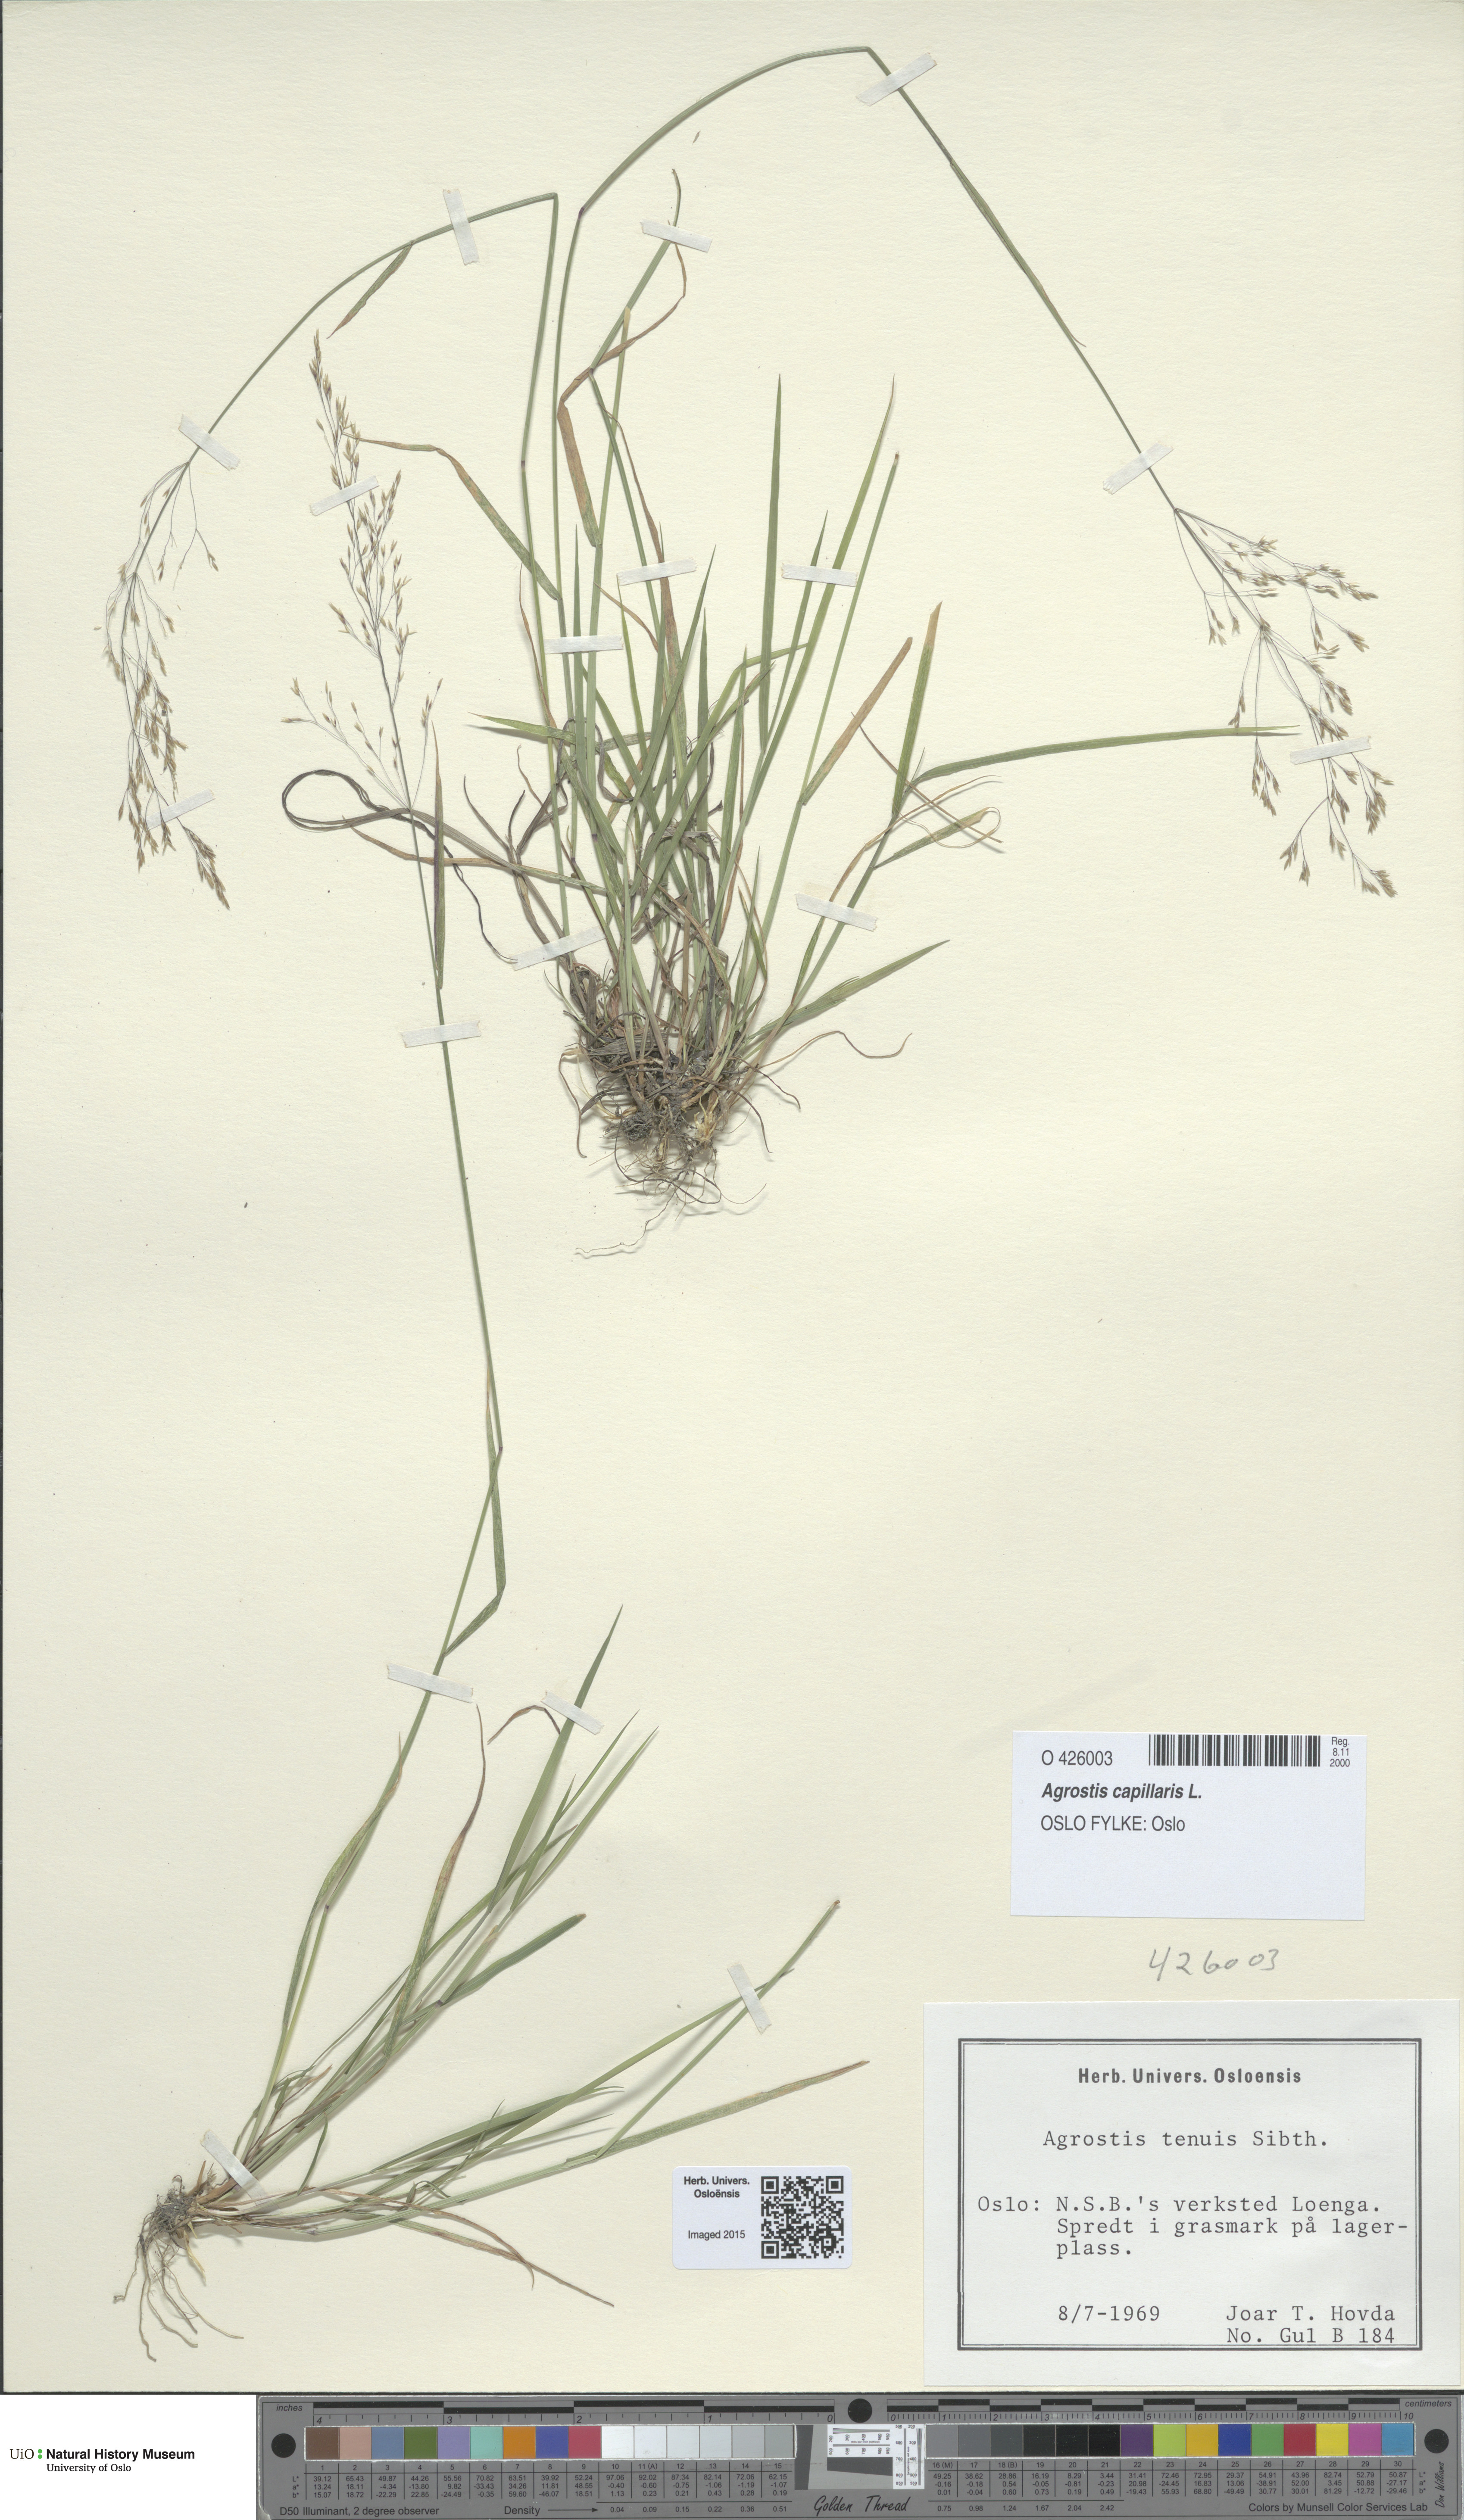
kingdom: Plantae
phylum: Tracheophyta
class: Liliopsida
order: Poales
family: Poaceae
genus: Agrostis
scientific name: Agrostis capillaris
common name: Colonial bentgrass
